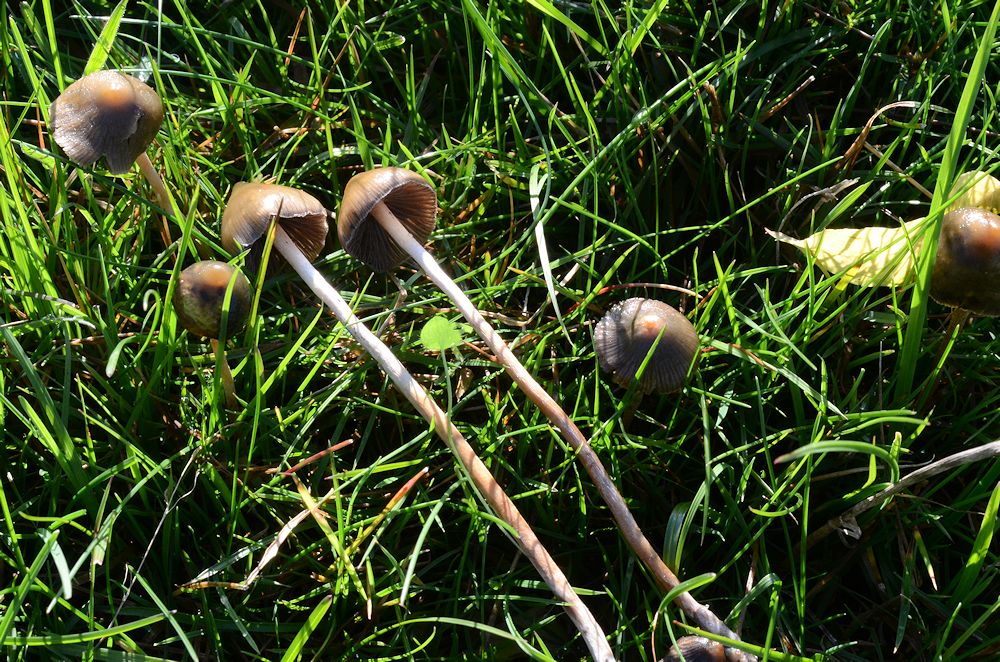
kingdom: Fungi
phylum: Basidiomycota
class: Agaricomycetes
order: Agaricales
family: Hymenogastraceae
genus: Psilocybe
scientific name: Psilocybe semilanceata
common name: spids nøgenhat
